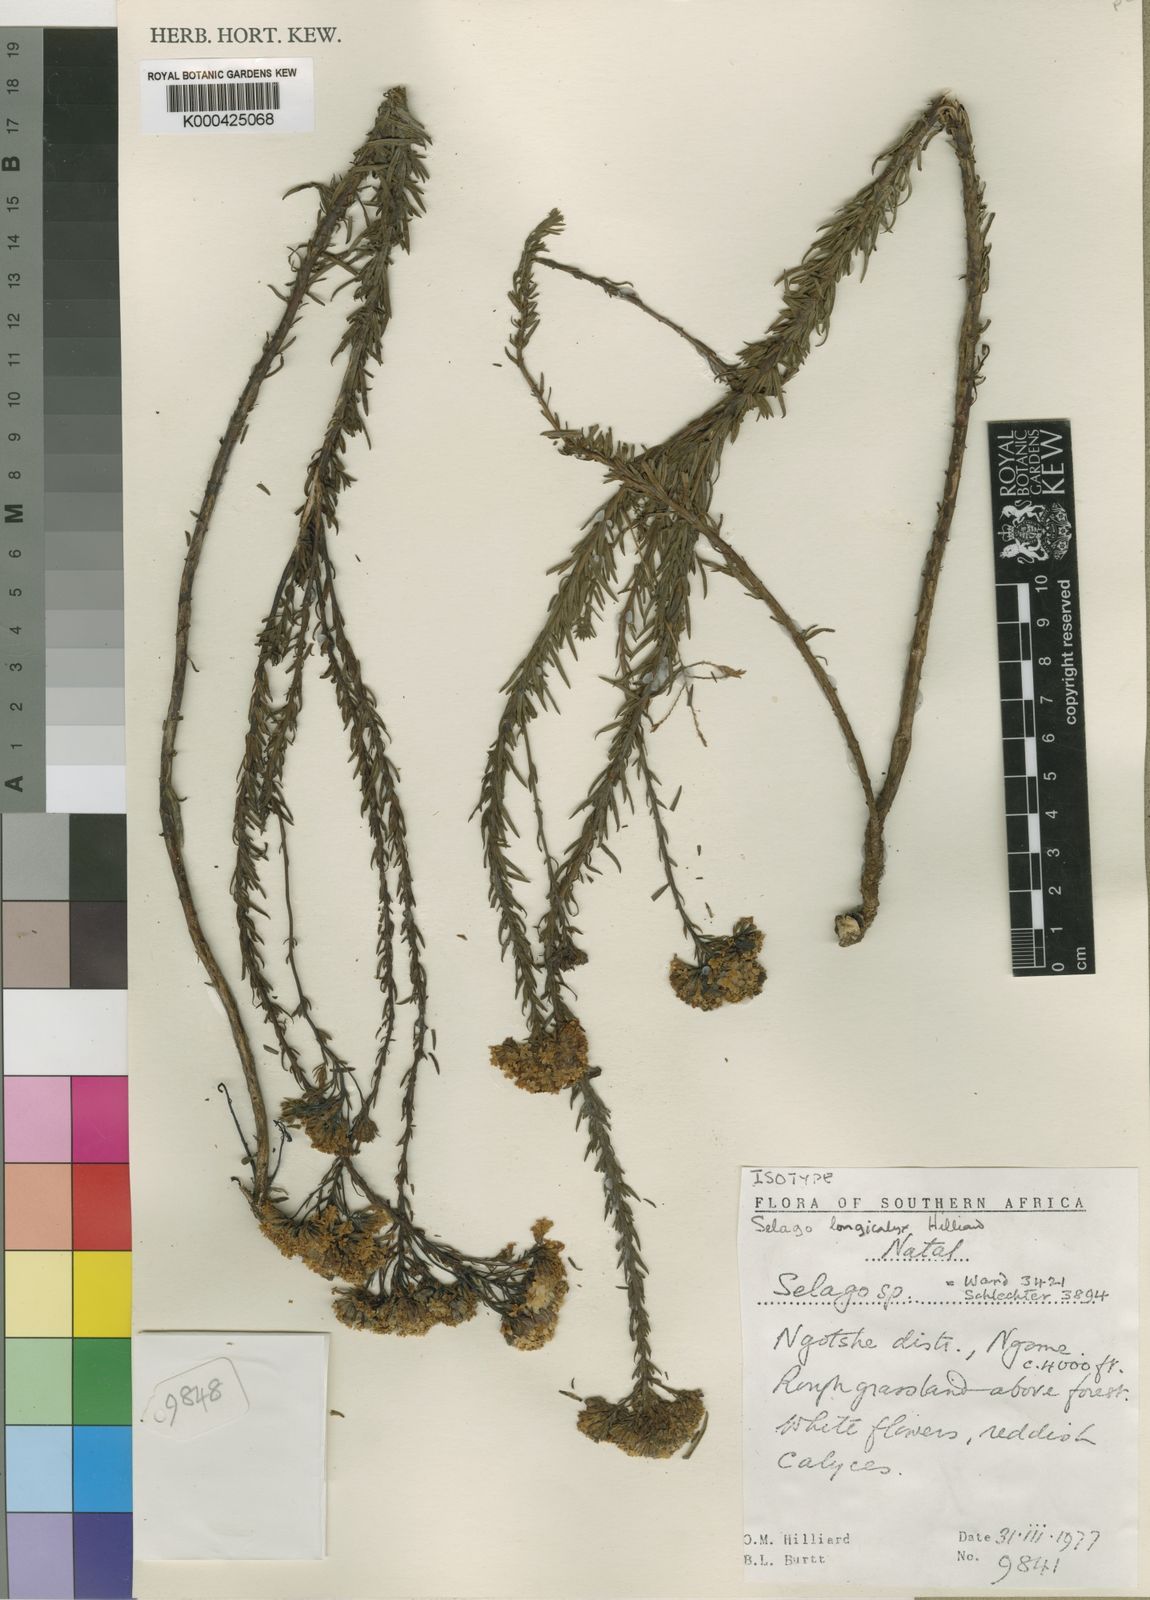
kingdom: Plantae
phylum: Tracheophyta
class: Magnoliopsida
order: Lamiales
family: Scrophulariaceae
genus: Selago
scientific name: Selago longicalyx
